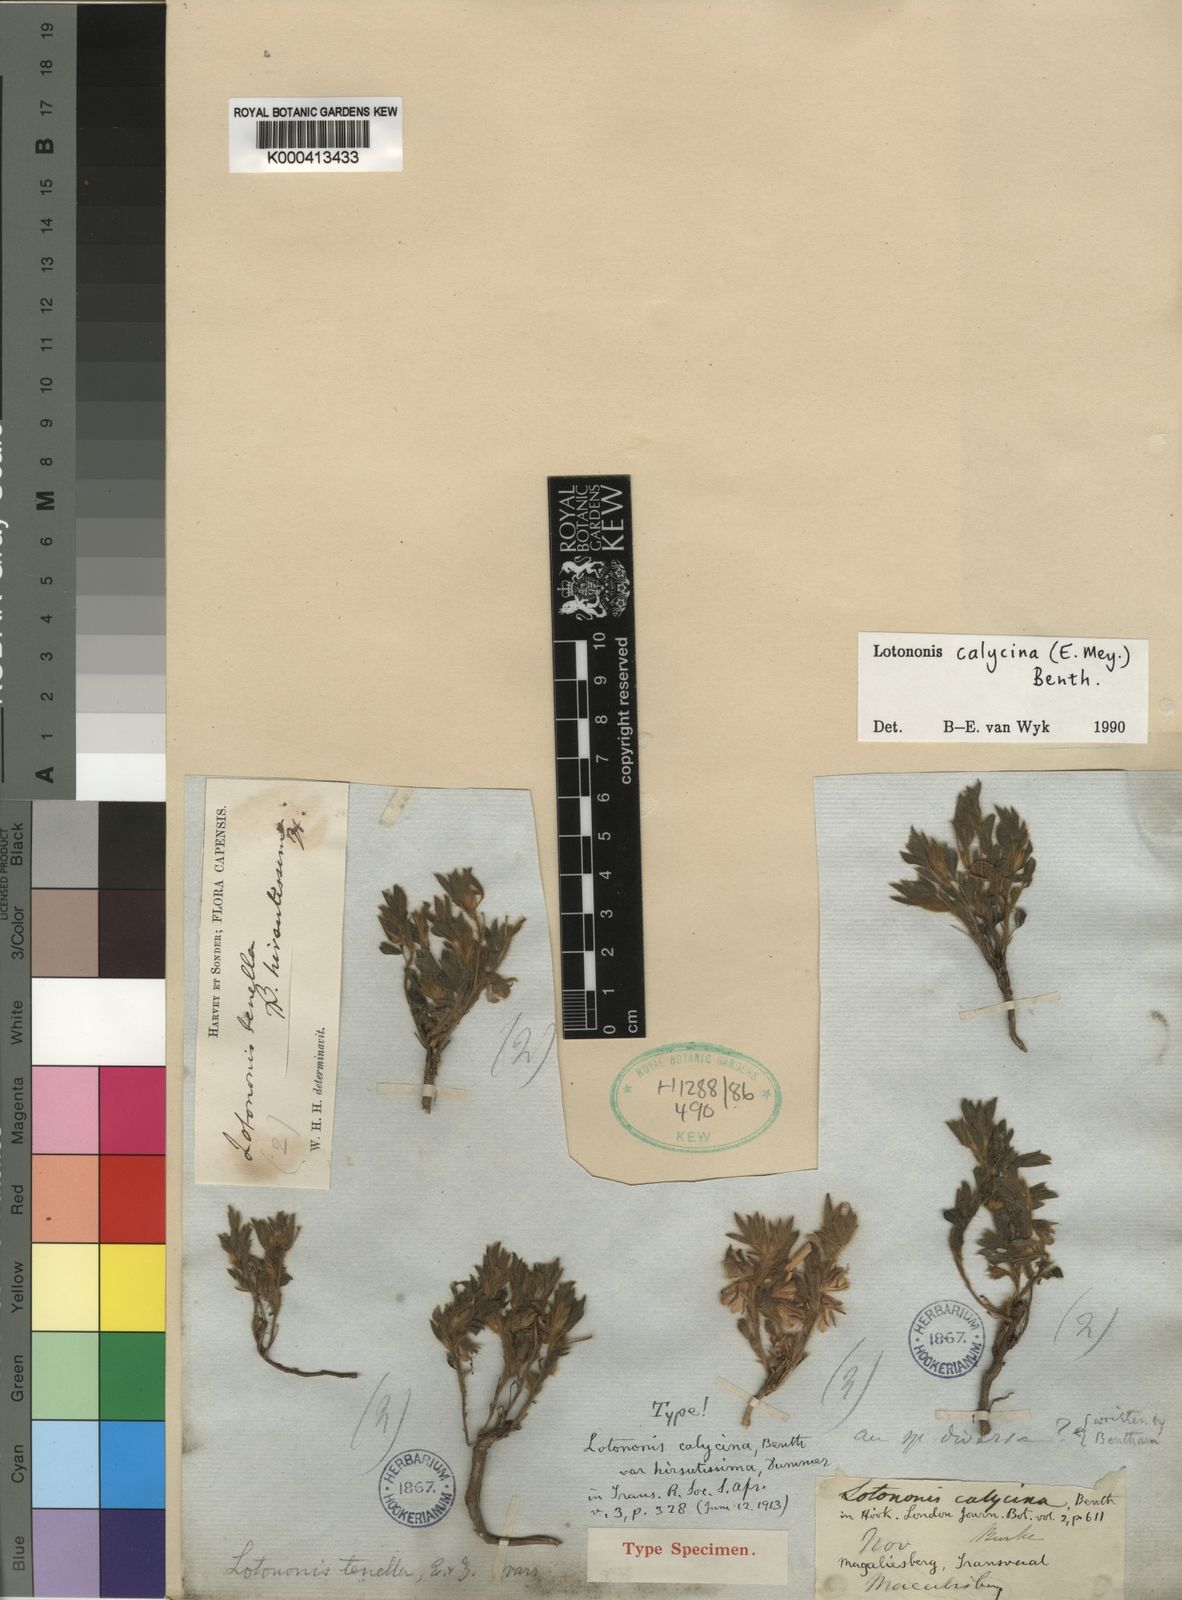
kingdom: Plantae
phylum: Tracheophyta
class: Magnoliopsida
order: Fabales
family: Fabaceae
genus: Leobordea
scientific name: Leobordea divaricata
